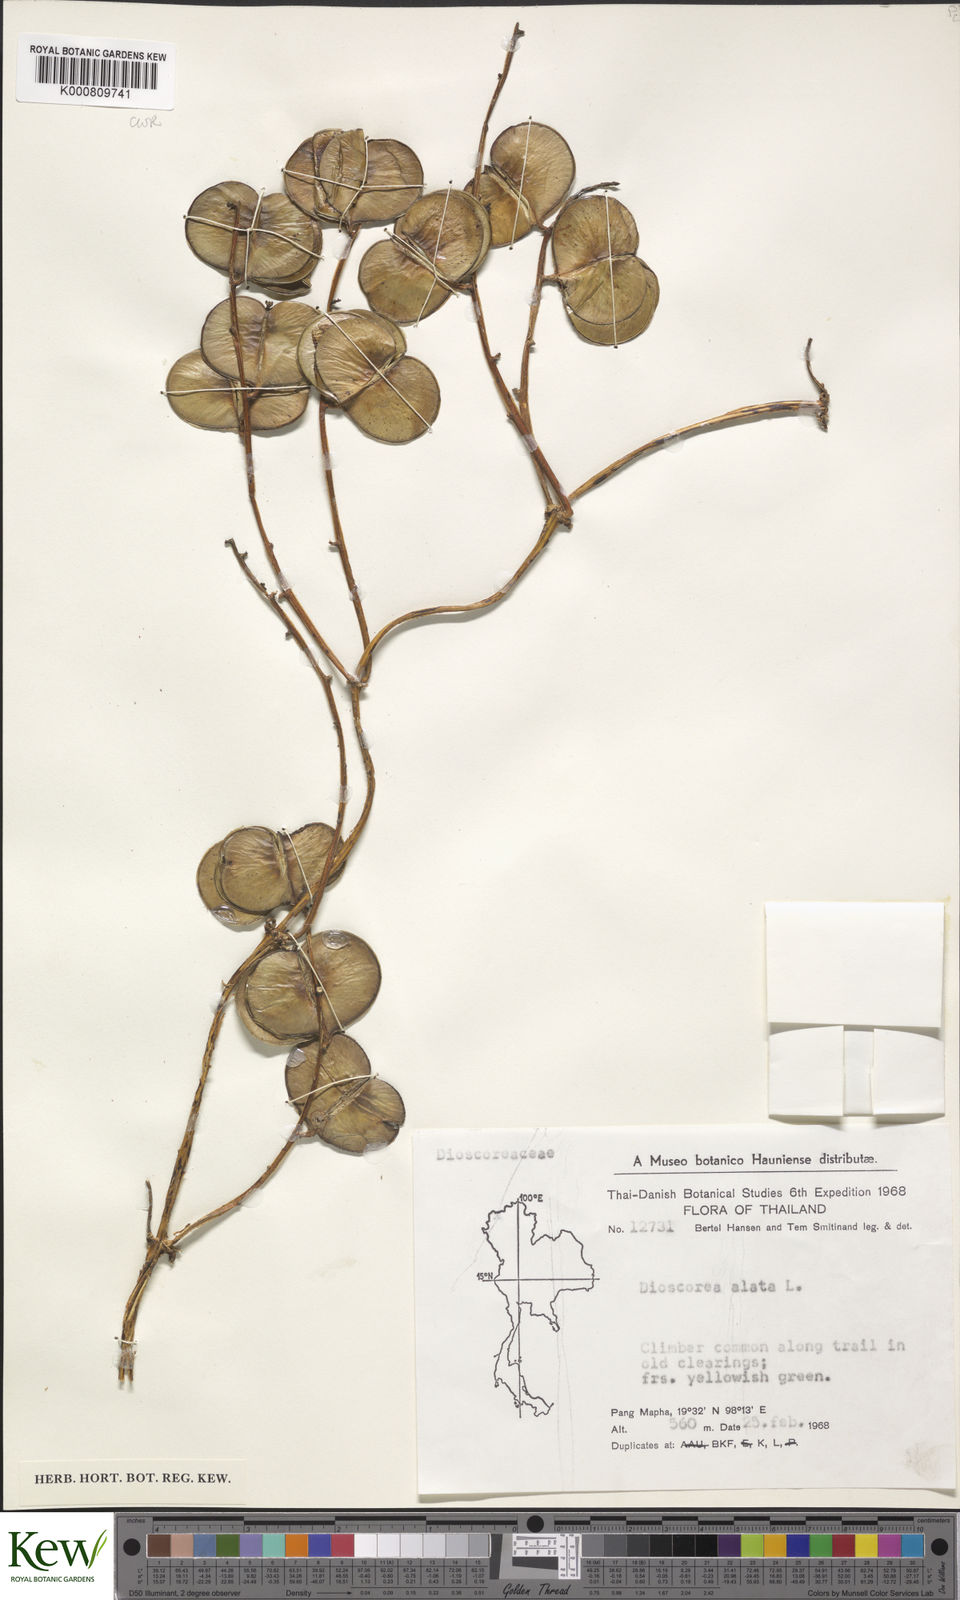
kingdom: Plantae
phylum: Tracheophyta
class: Liliopsida
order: Dioscoreales
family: Dioscoreaceae
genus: Dioscorea
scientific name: Dioscorea alata
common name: Water yam
